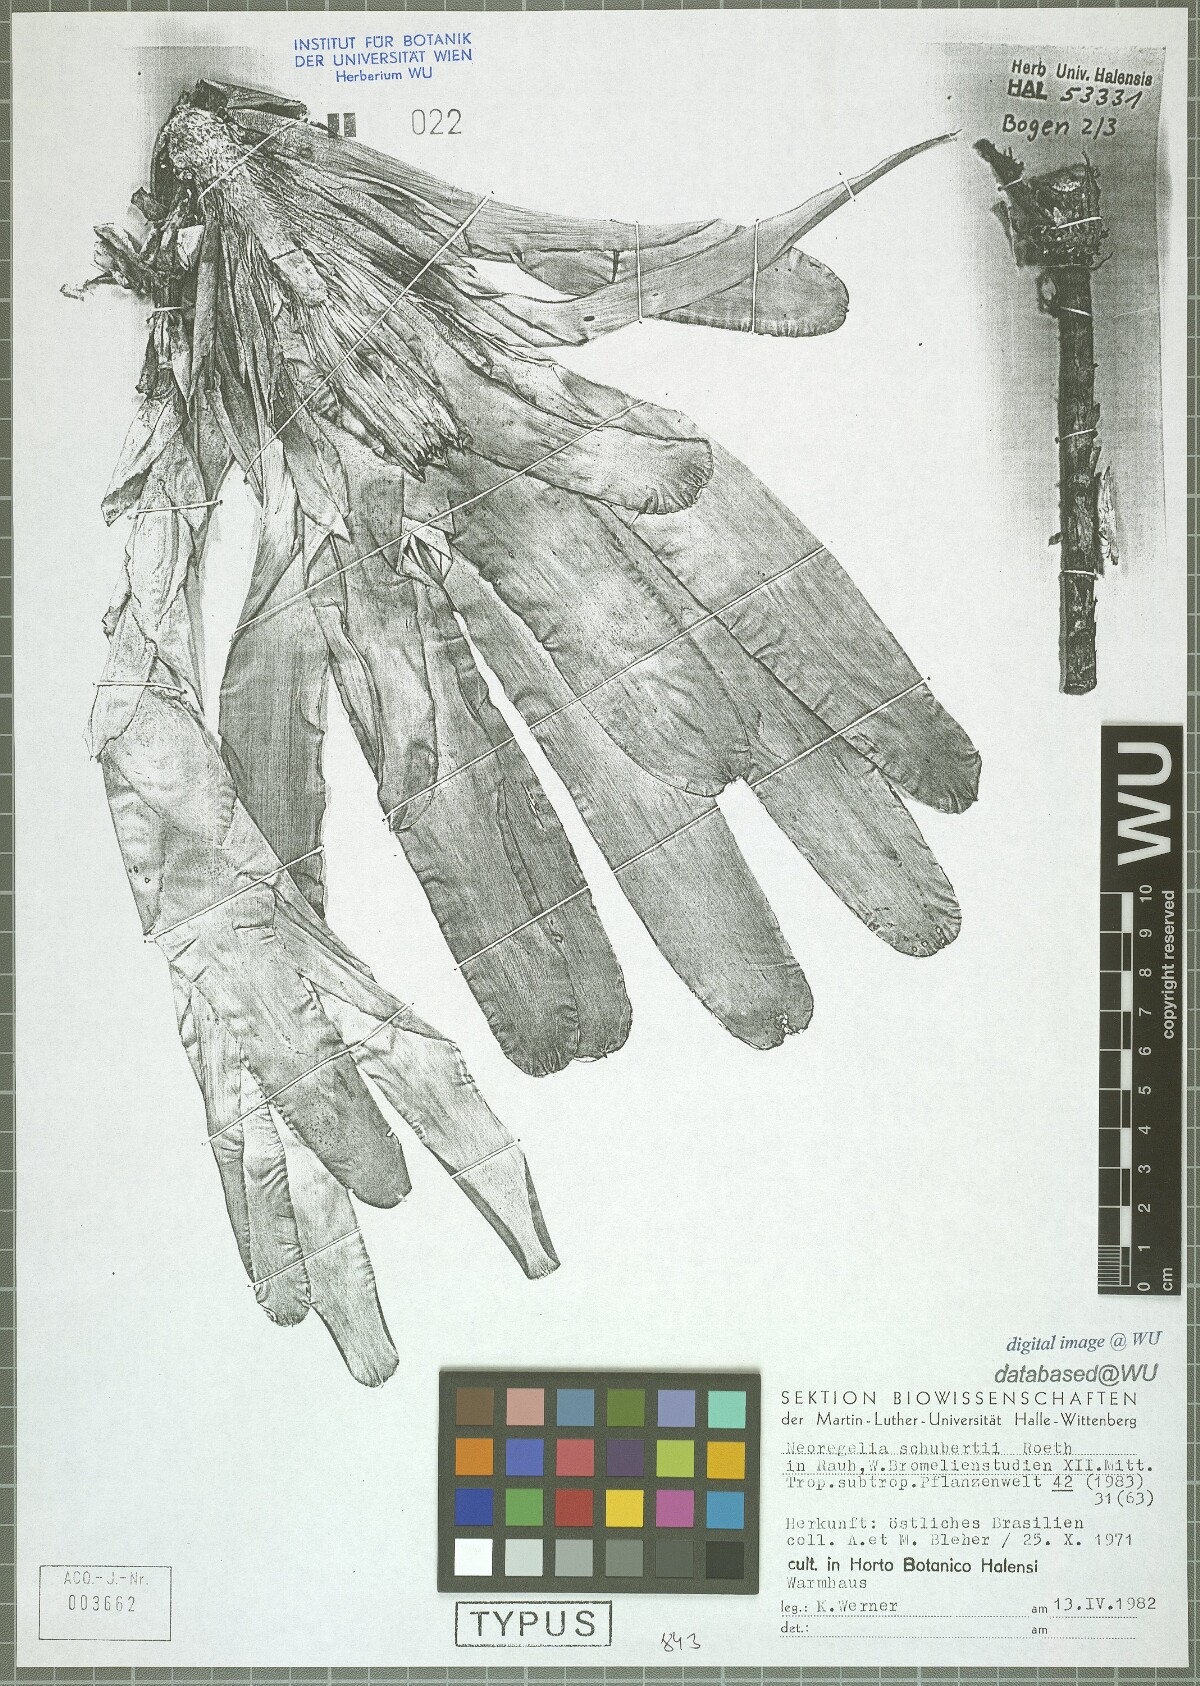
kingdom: Plantae
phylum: Tracheophyta
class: Liliopsida
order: Poales
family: Bromeliaceae
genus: Neoregelia
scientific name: Neoregelia schubertii
